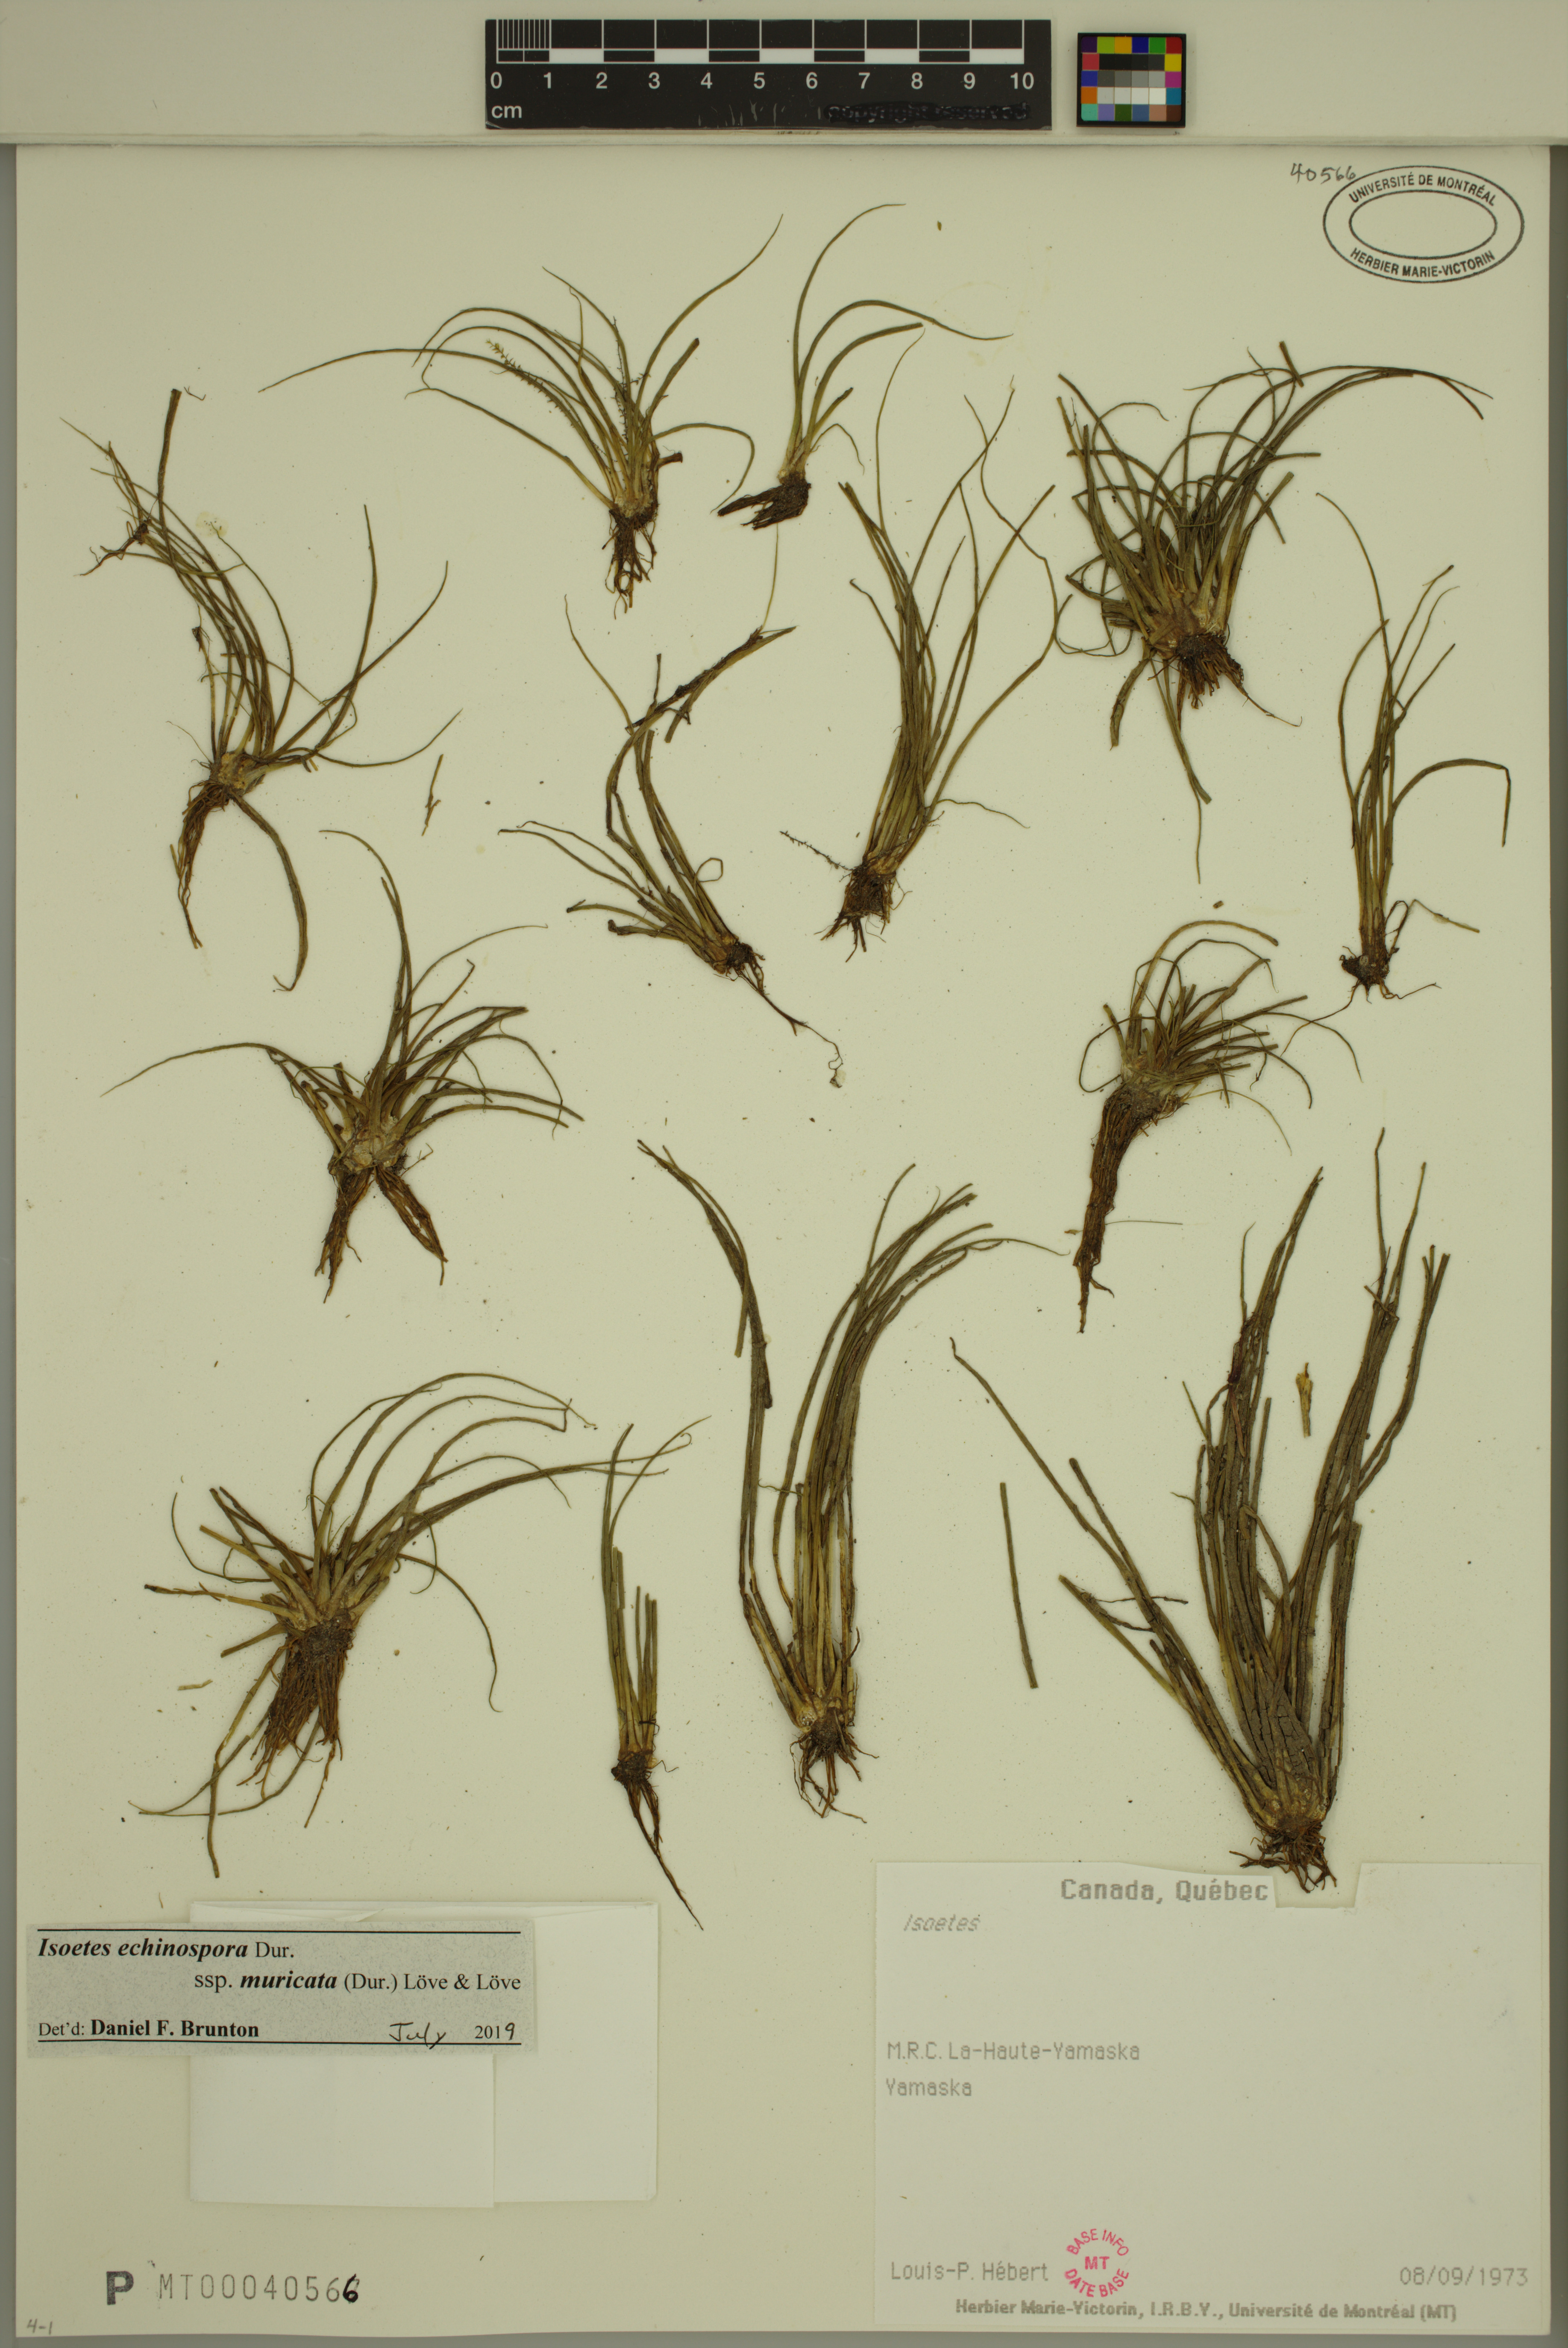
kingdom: Plantae
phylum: Tracheophyta
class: Lycopodiopsida
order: Isoetales
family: Isoetaceae
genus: Isoetes
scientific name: Isoetes echinospora
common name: Spring quillwort
